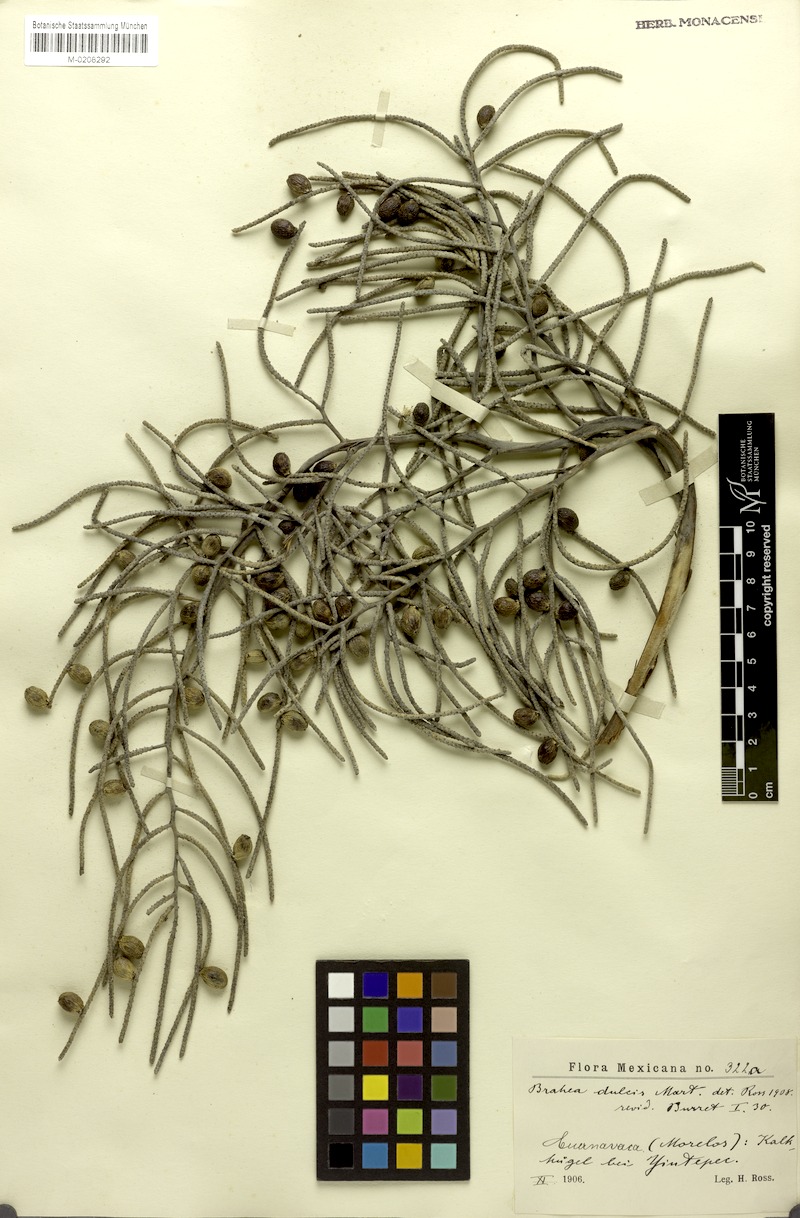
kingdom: Plantae
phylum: Tracheophyta
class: Liliopsida
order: Arecales
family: Arecaceae
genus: Brahea
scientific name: Brahea dulcis
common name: Apak palm
